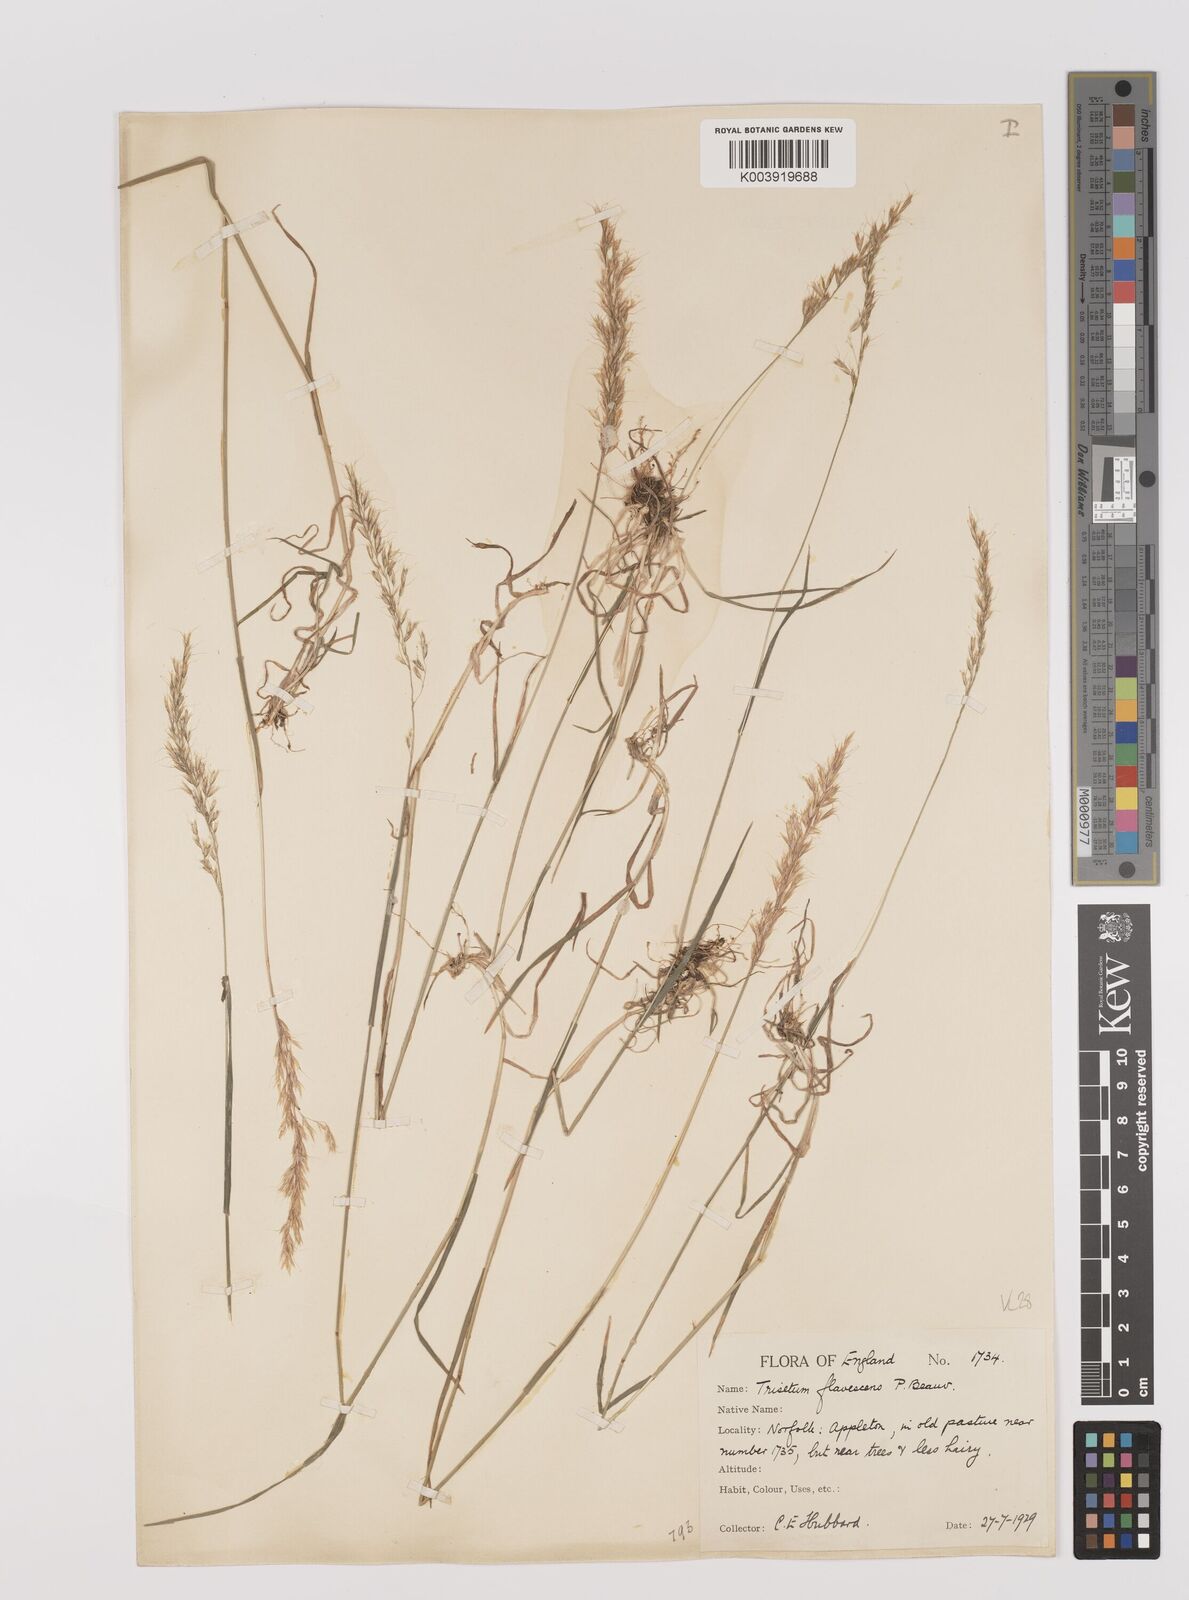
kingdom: Plantae
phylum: Tracheophyta
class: Liliopsida
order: Poales
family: Poaceae
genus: Trisetum
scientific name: Trisetum flavescens
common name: Yellow oat-grass
